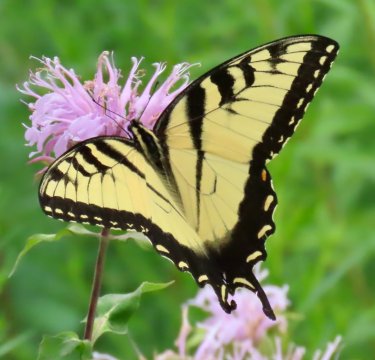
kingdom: Animalia
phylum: Arthropoda
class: Insecta
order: Lepidoptera
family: Papilionidae
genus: Pterourus
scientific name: Pterourus glaucus
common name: Eastern Tiger Swallowtail
